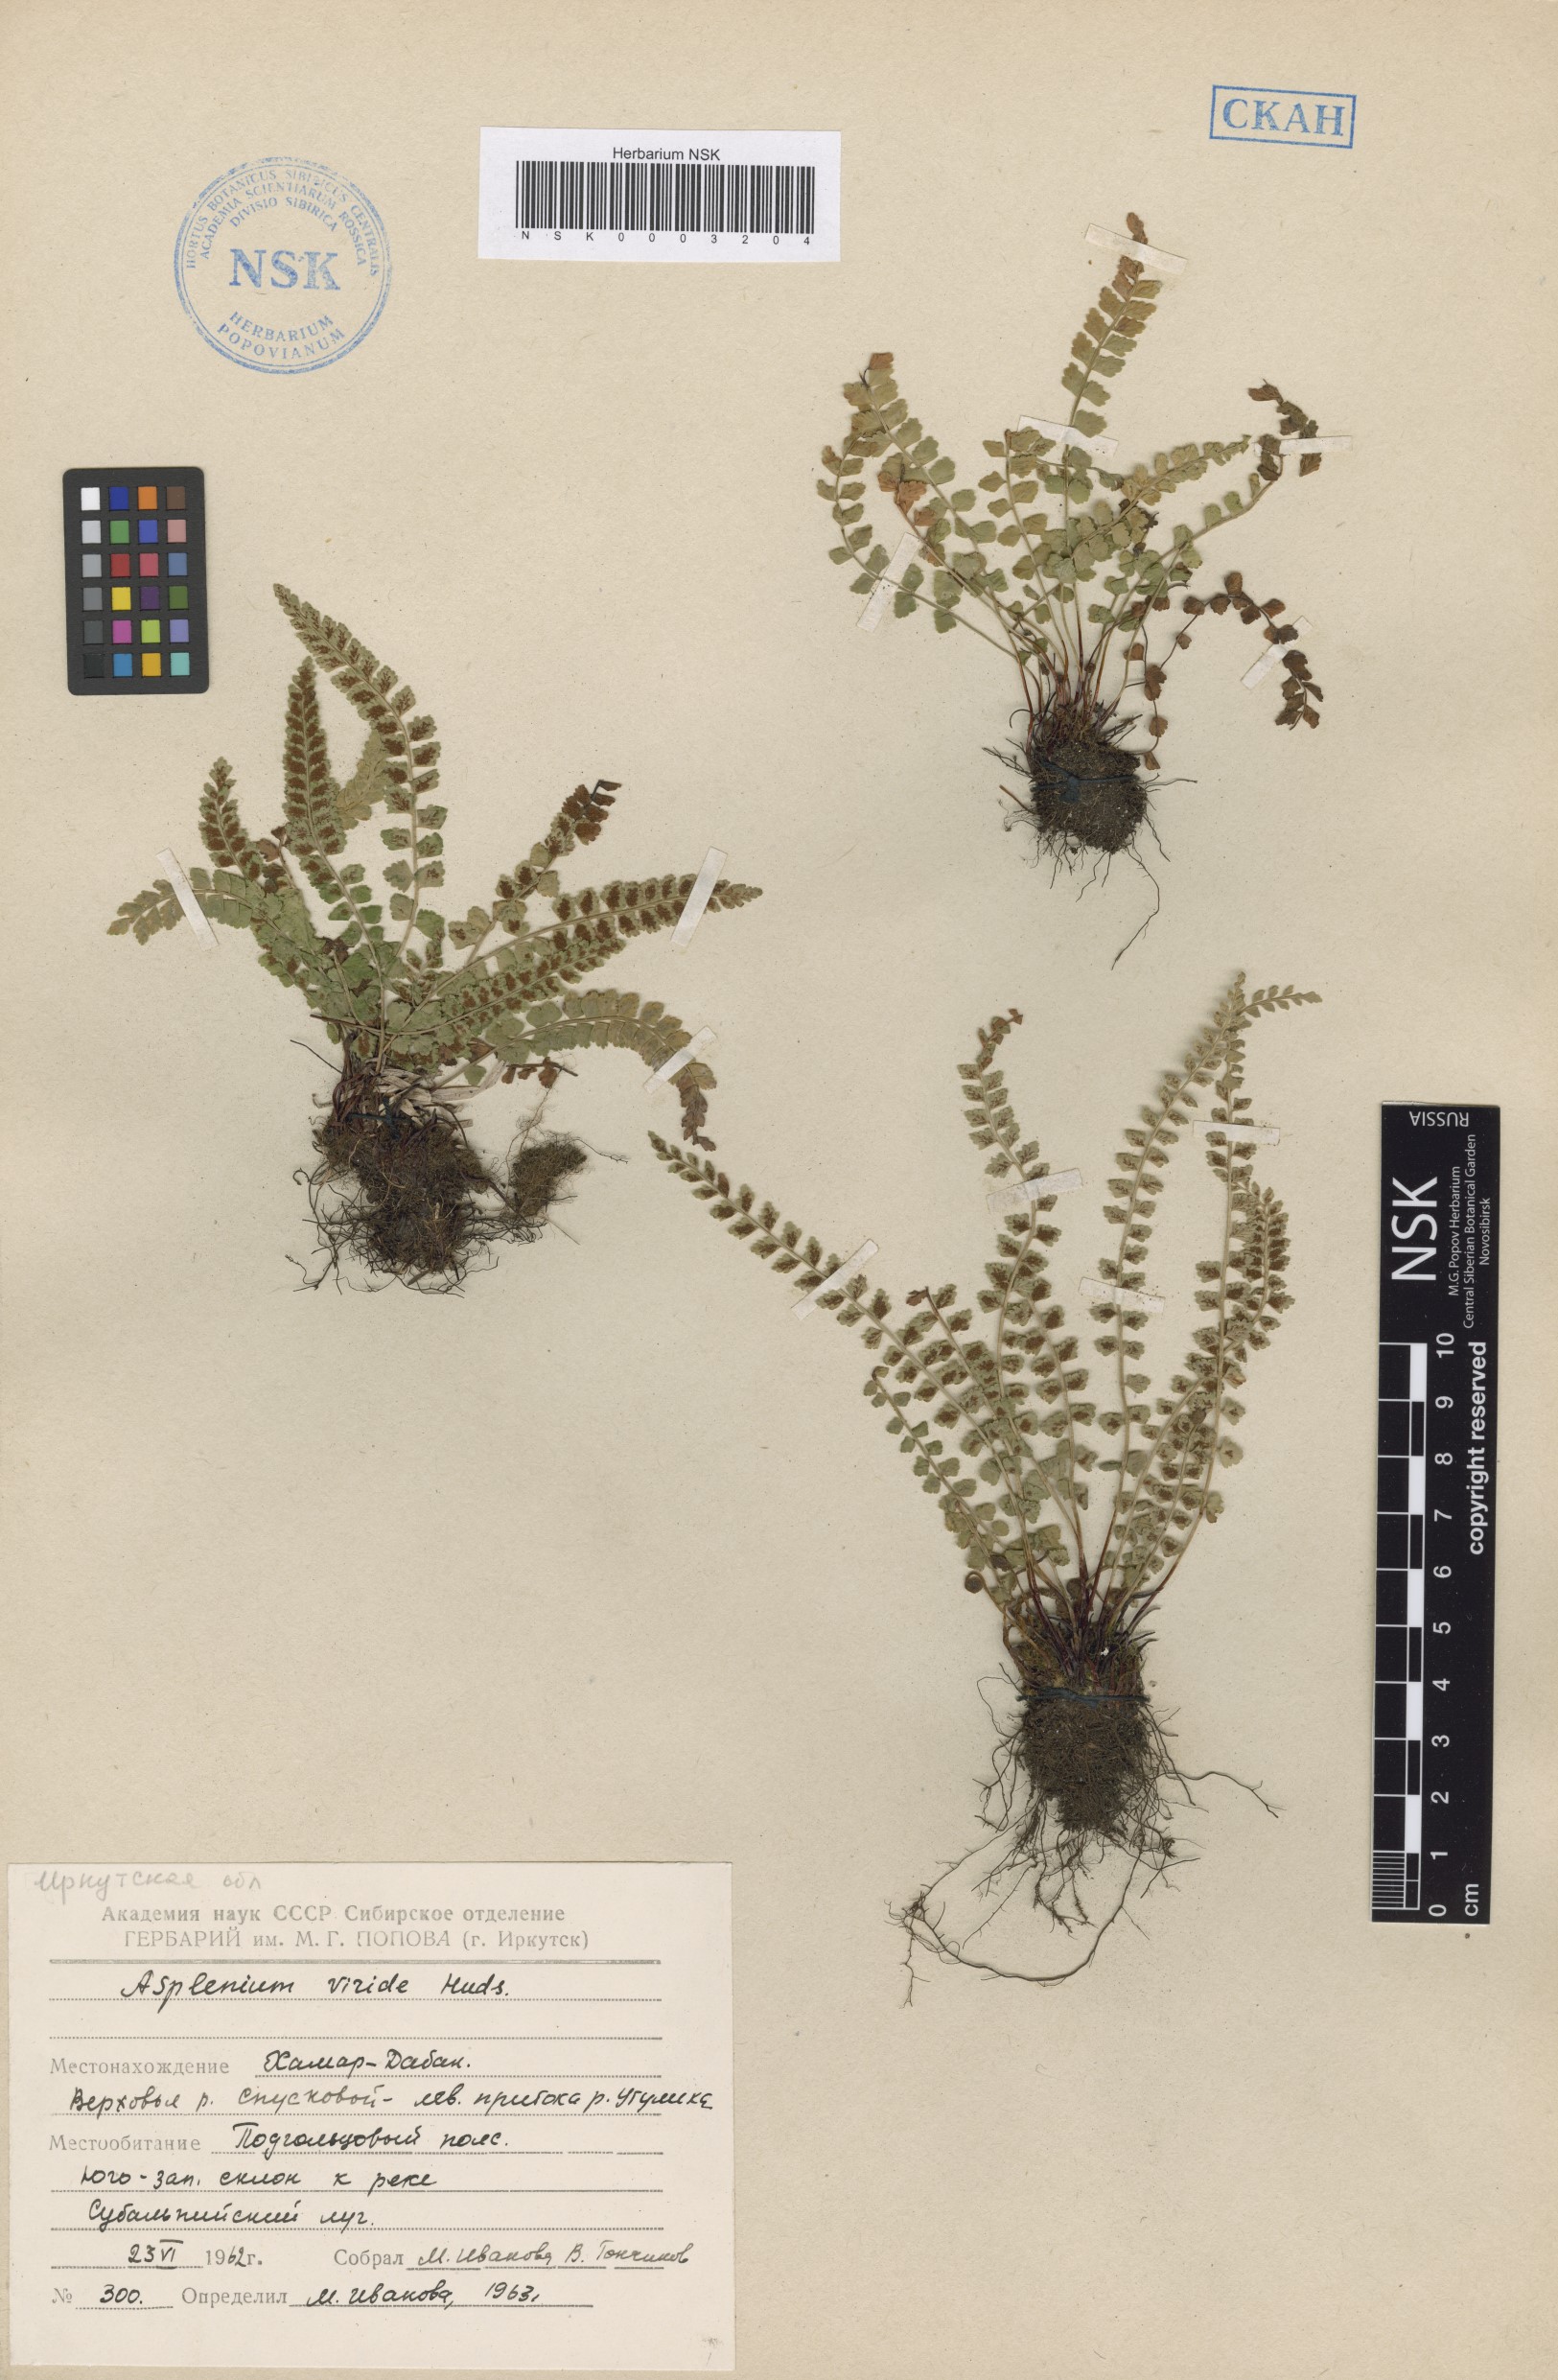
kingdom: Plantae
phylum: Tracheophyta
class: Polypodiopsida
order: Polypodiales
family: Aspleniaceae
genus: Asplenium
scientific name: Asplenium viride
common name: Green spleenwort
